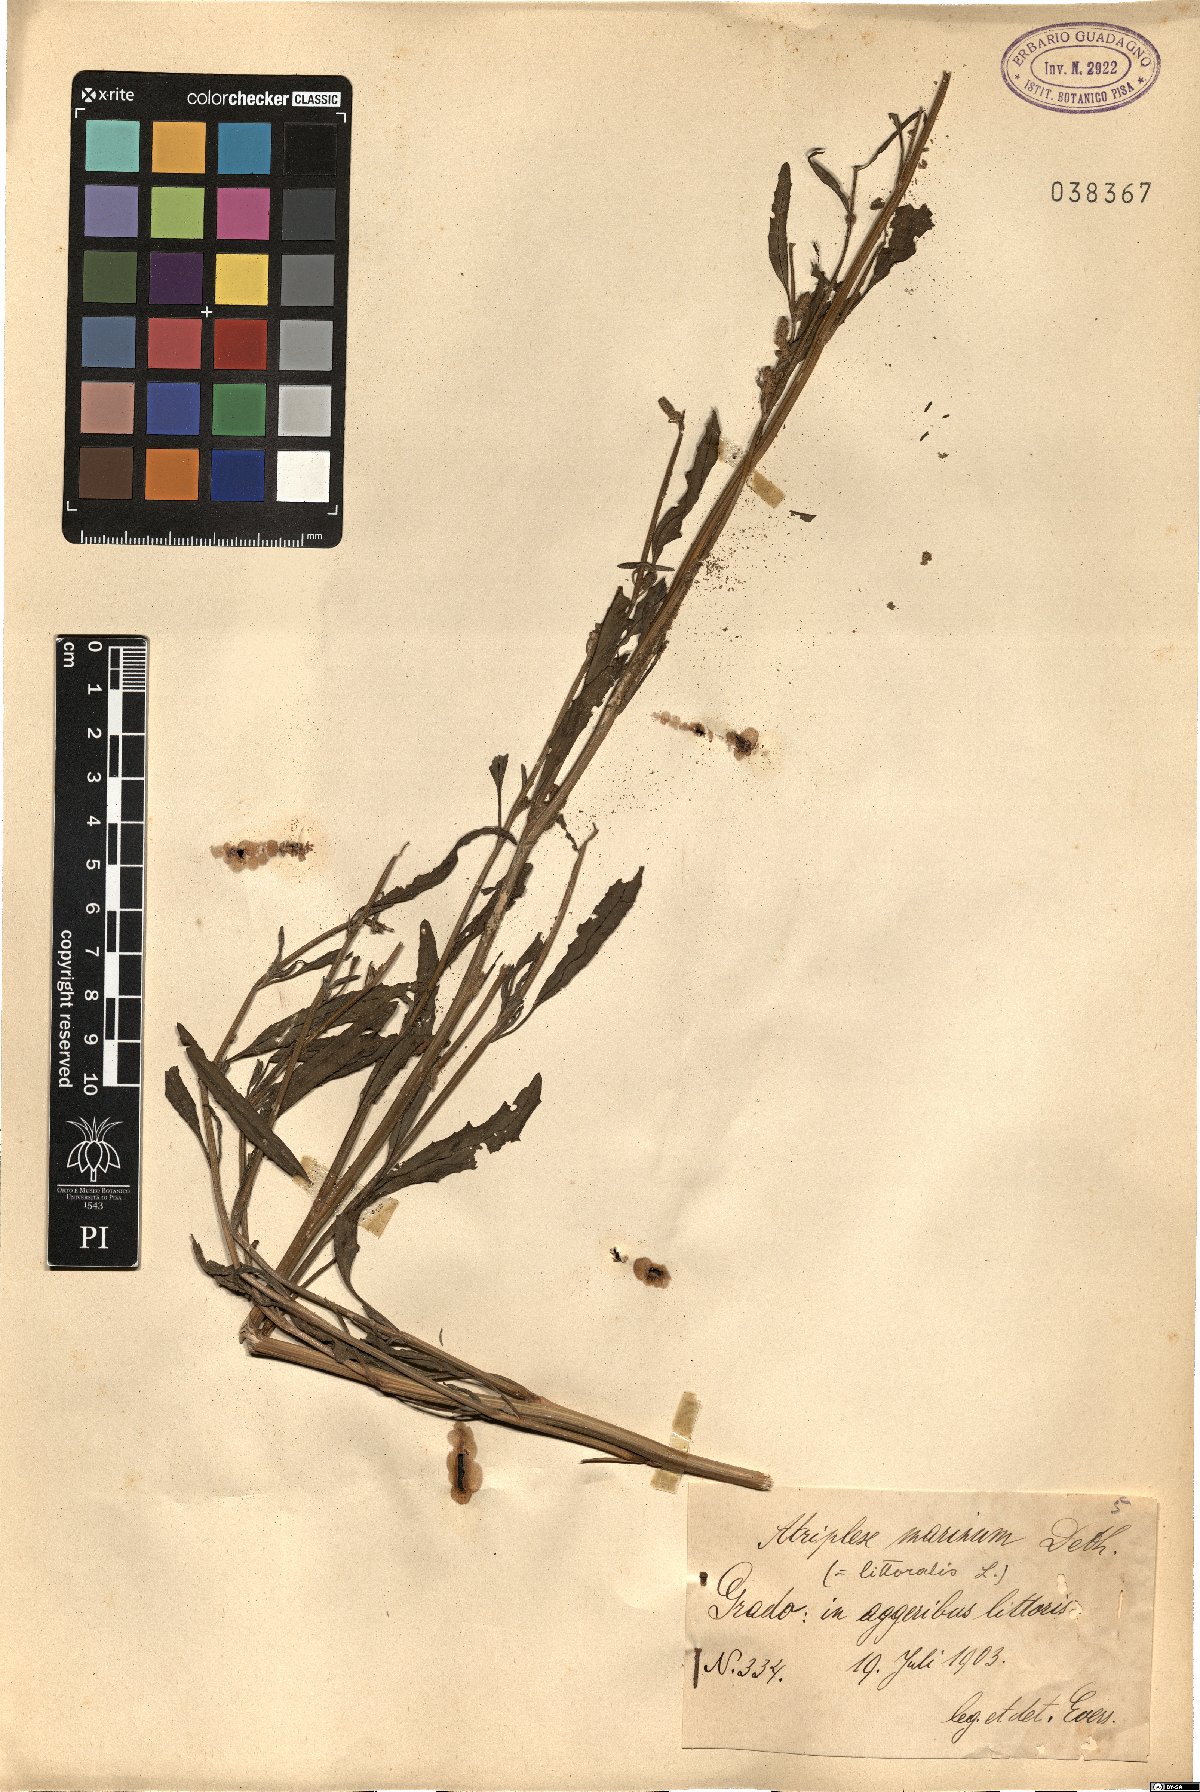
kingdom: Plantae
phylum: Tracheophyta
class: Magnoliopsida
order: Caryophyllales
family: Amaranthaceae
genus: Atriplex
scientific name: Atriplex littoralis
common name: Grass-leaved orache
